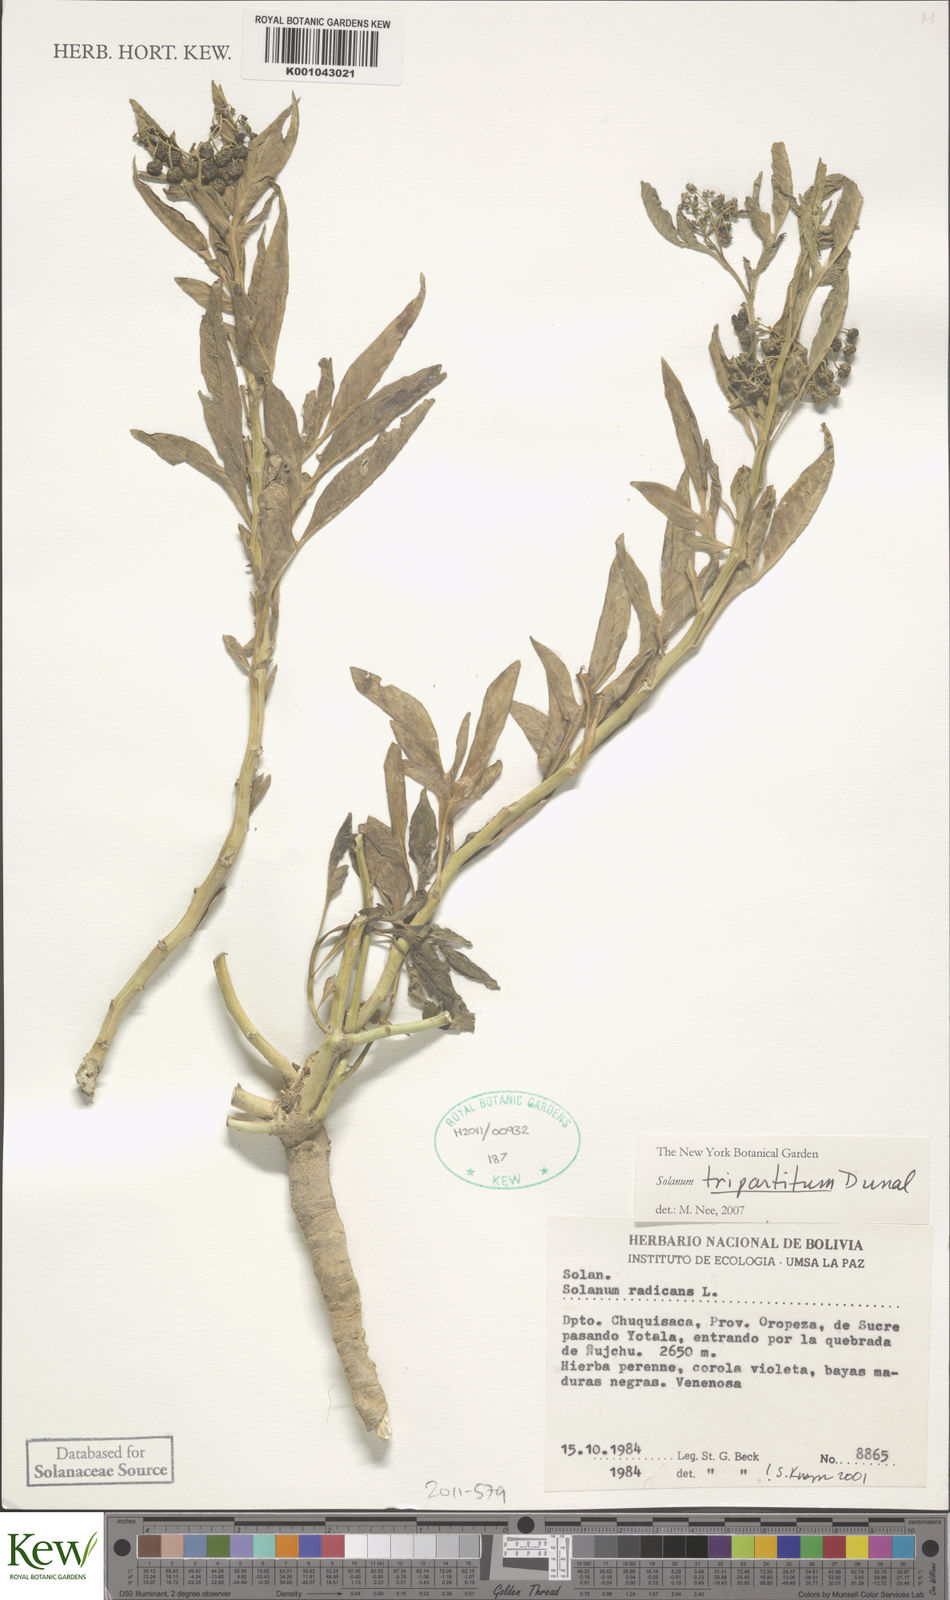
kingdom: Plantae
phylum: Tracheophyta
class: Magnoliopsida
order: Solanales
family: Solanaceae
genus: Solanum
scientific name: Solanum tripartitum
